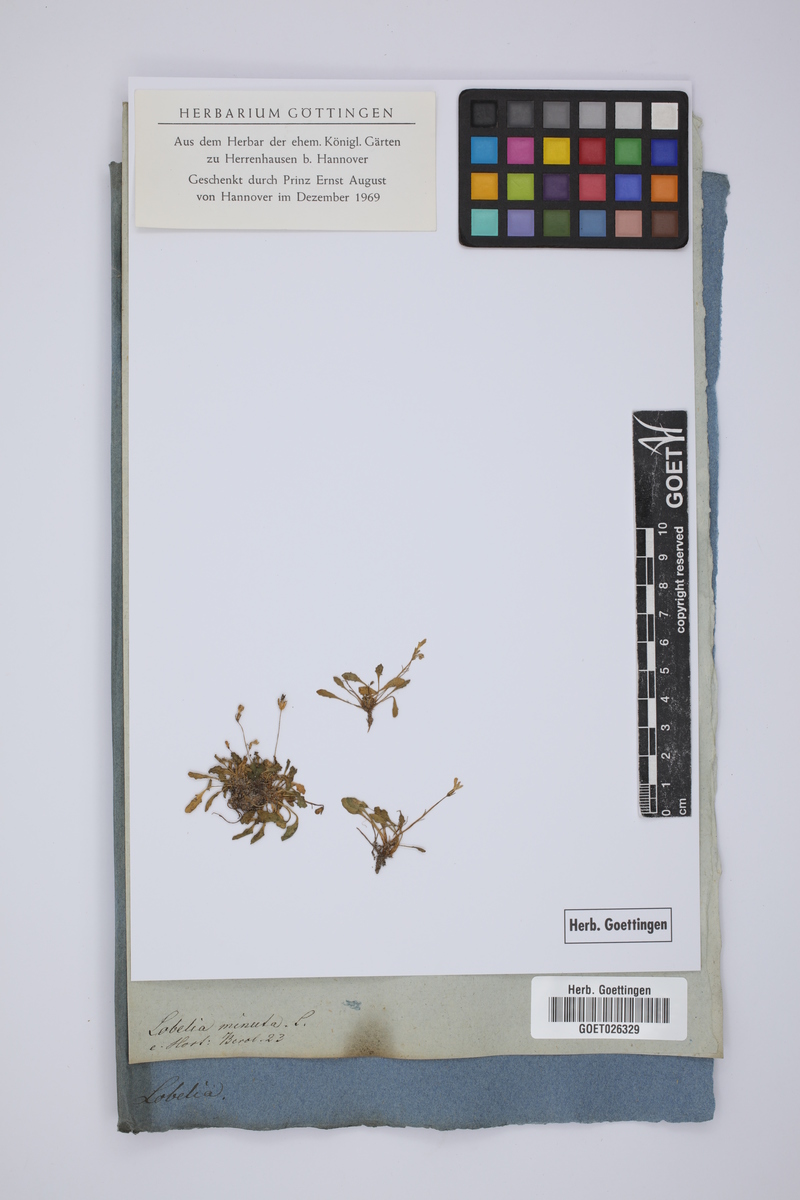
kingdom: Plantae
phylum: Tracheophyta
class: Magnoliopsida
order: Asterales
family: Campanulaceae
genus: Solenopsis
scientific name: Solenopsis minuta
